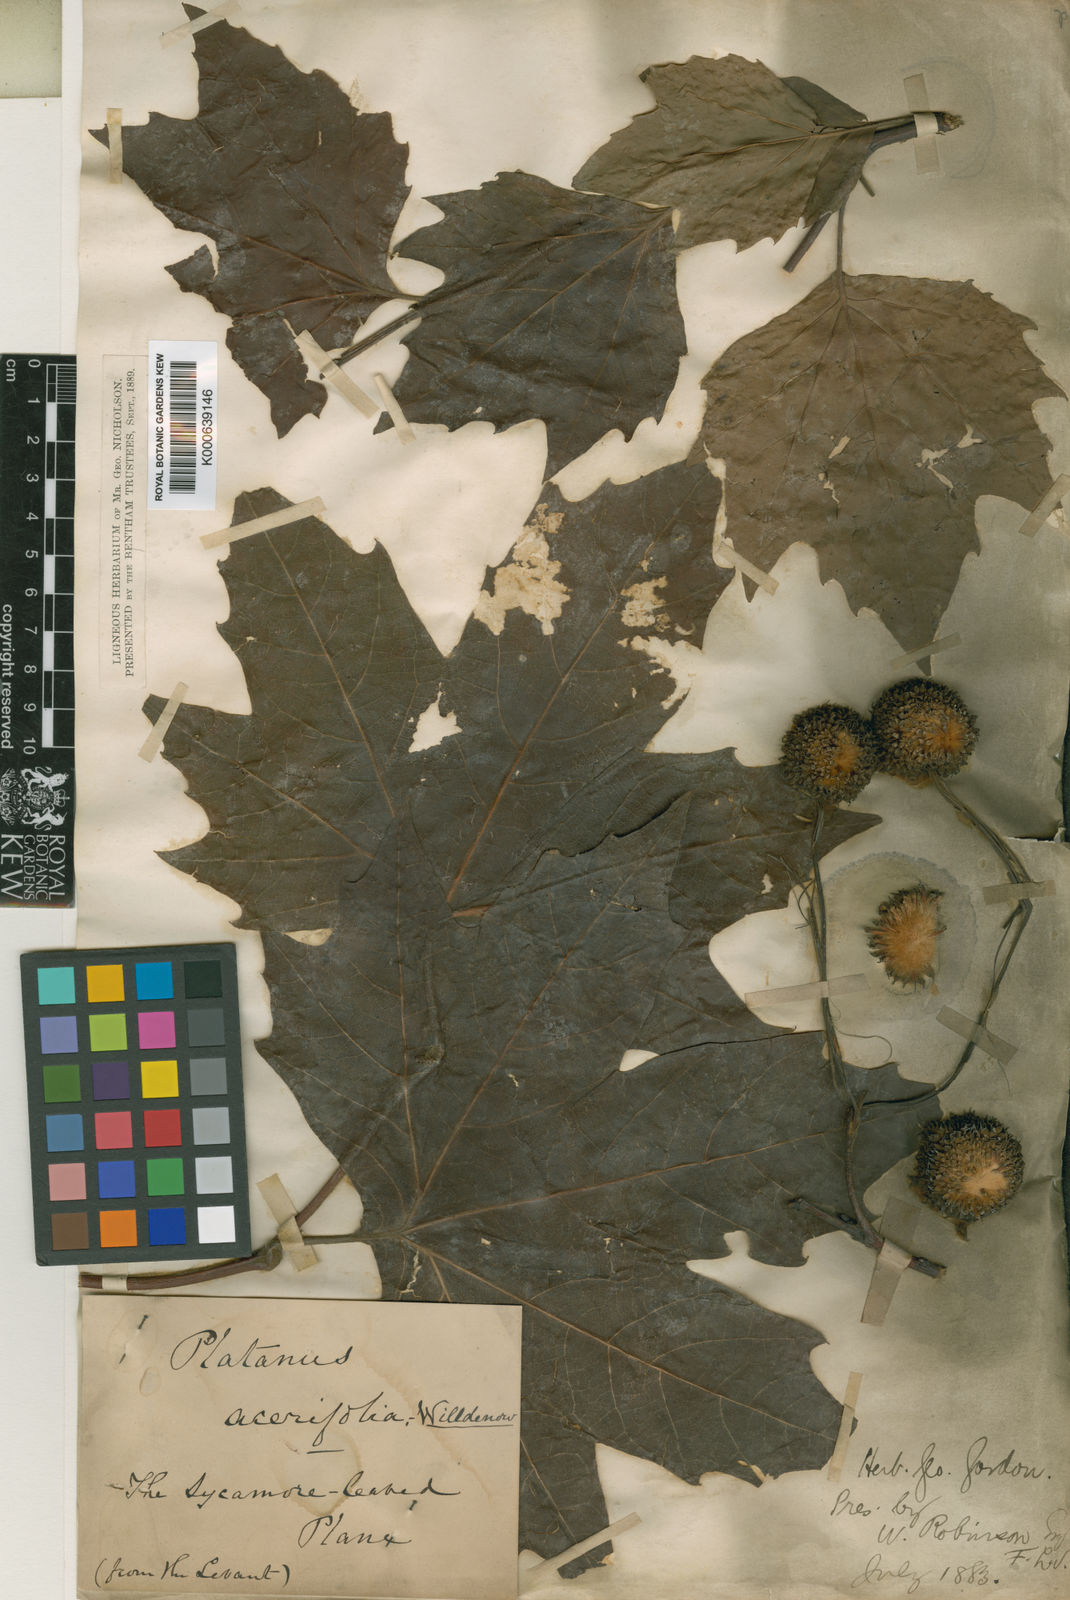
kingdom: Plantae
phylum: Tracheophyta
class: Magnoliopsida
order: Proteales
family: Platanaceae
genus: Platanus
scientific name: Platanus
